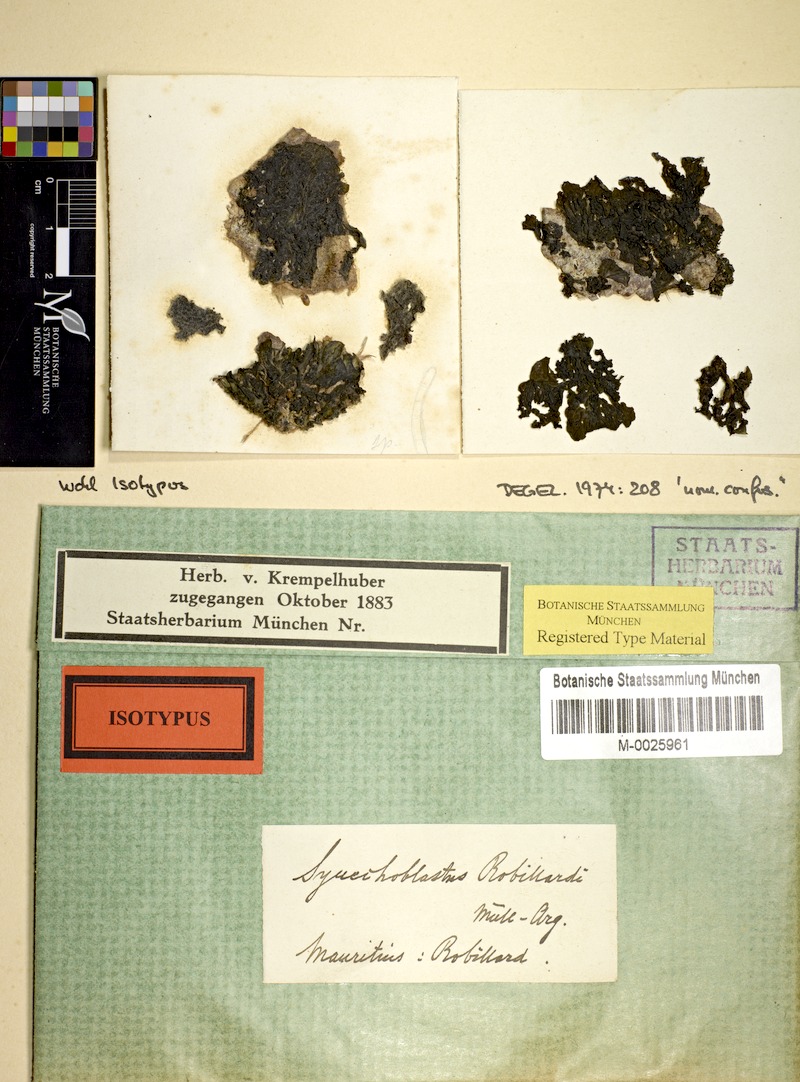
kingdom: Fungi
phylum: Ascomycota
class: Lecanoromycetes
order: Peltigerales
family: Collemataceae
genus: Collema
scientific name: Collema
